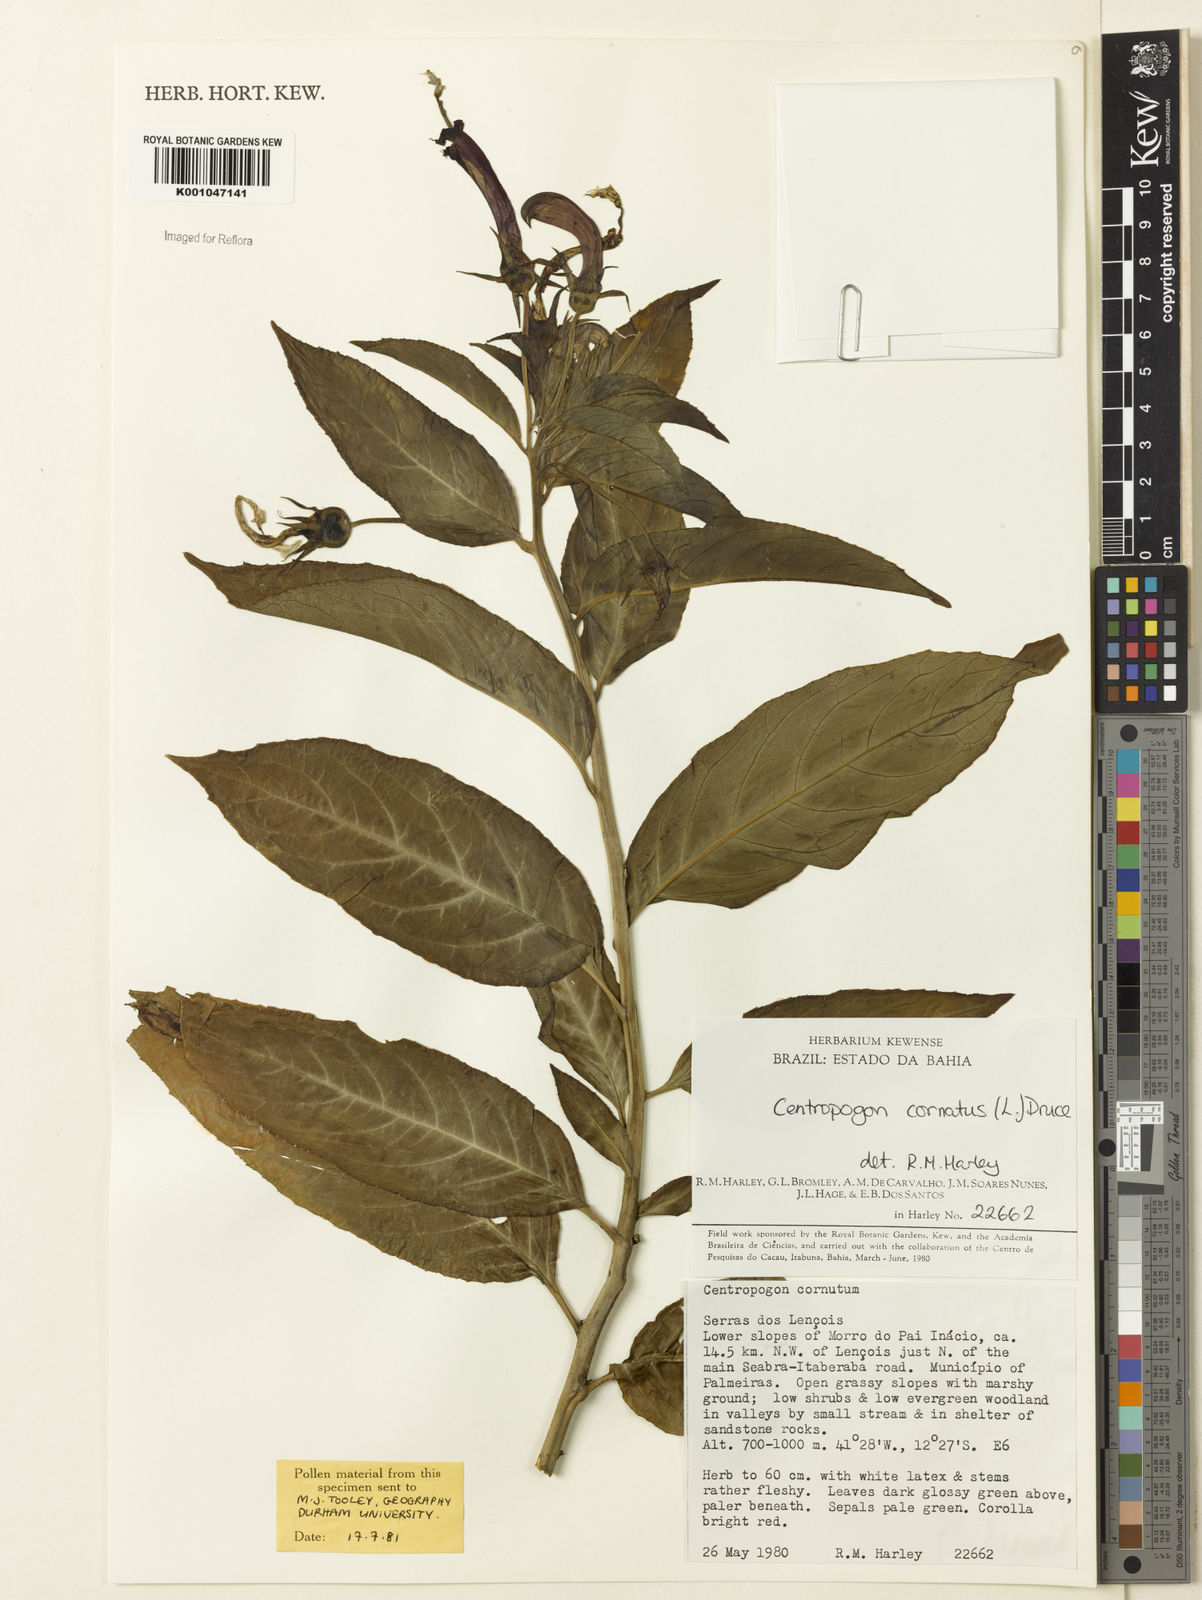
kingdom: Plantae
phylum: Tracheophyta
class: Magnoliopsida
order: Asterales
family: Campanulaceae
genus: Centropogon
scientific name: Centropogon cornutus
